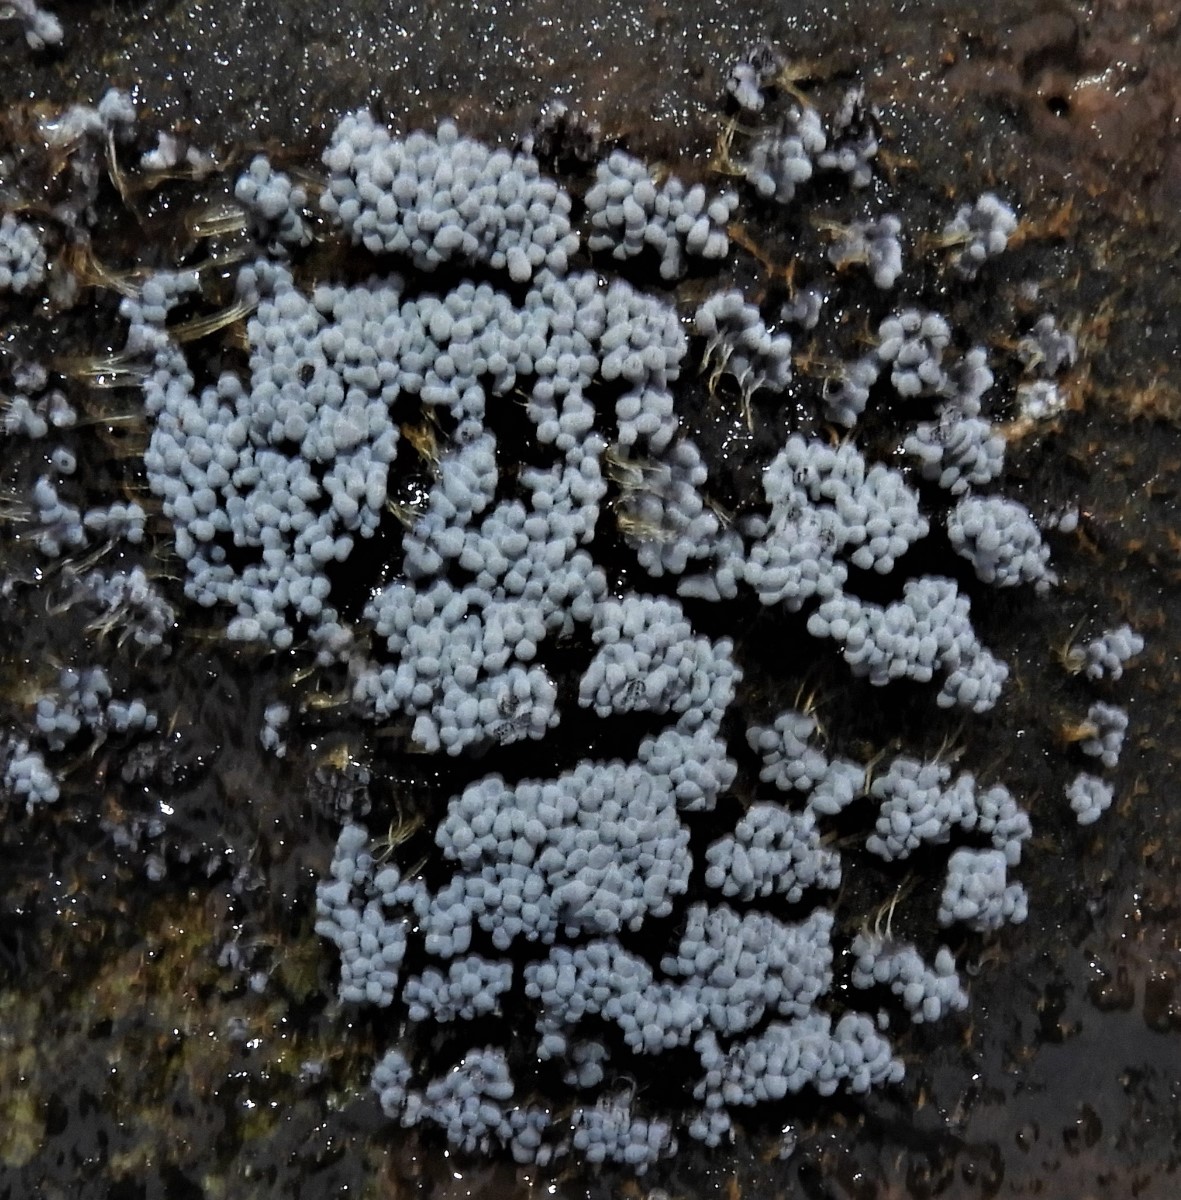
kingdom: Protozoa
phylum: Mycetozoa
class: Myxomycetes
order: Physarales
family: Physaraceae
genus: Badhamia
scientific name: Badhamia utricularis
